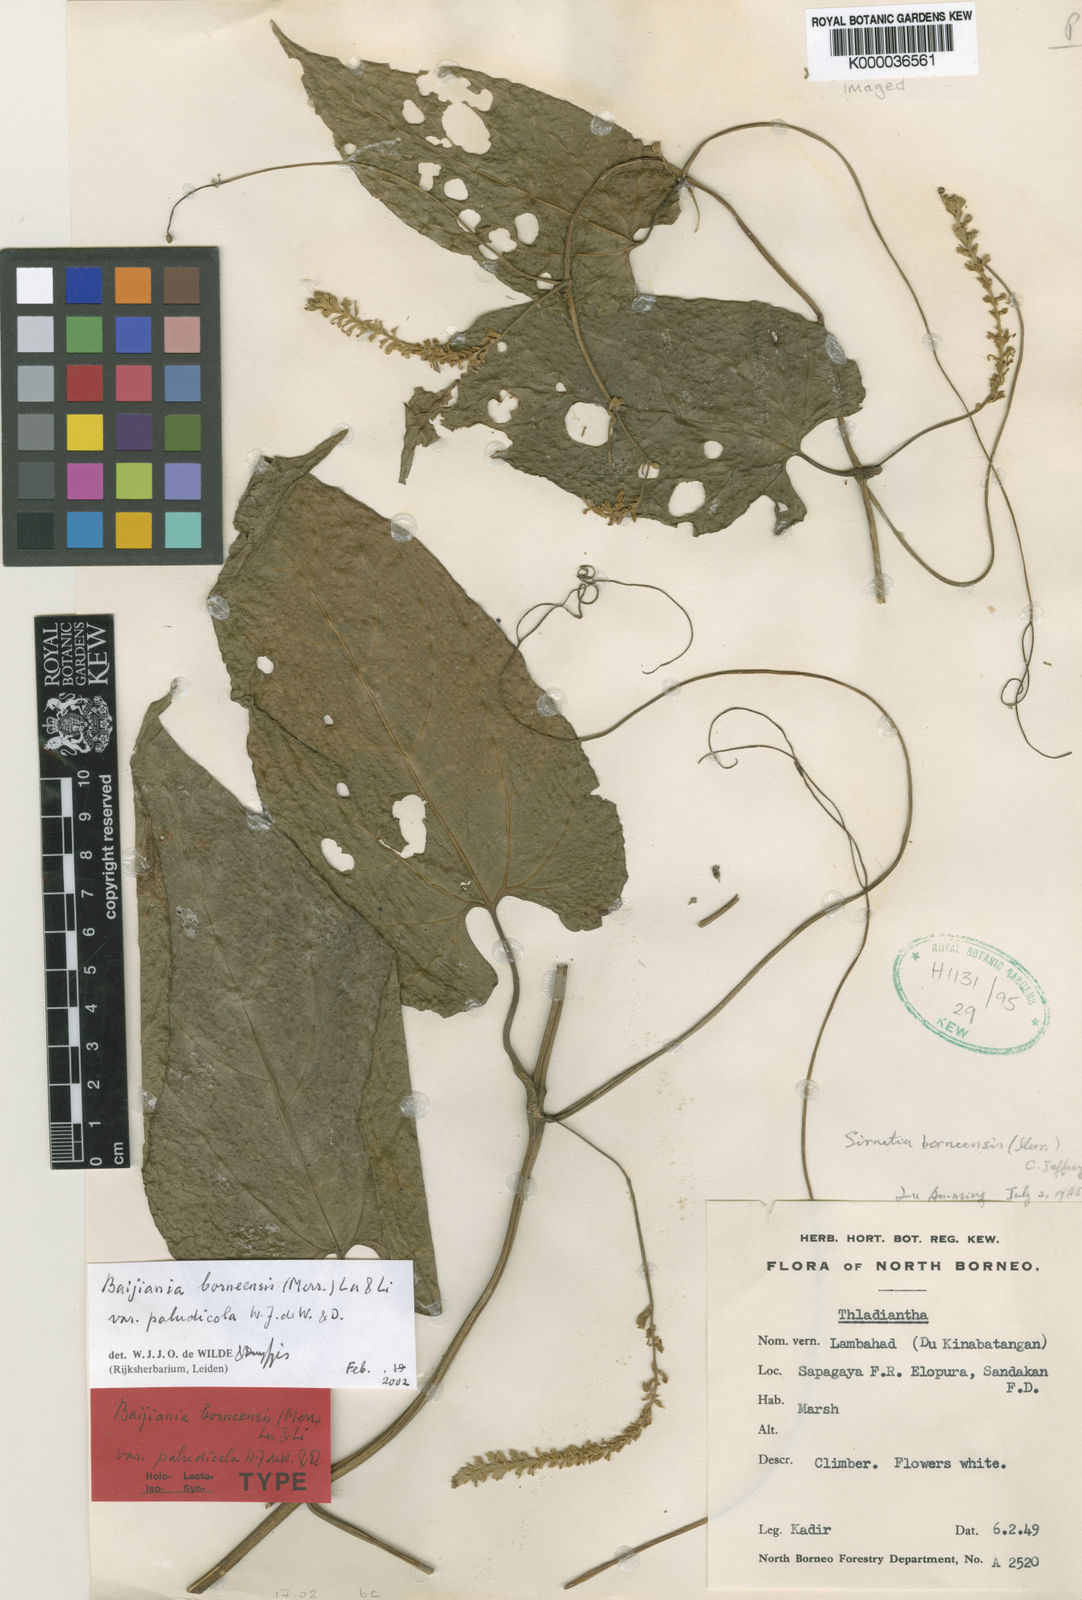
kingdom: Plantae
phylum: Tracheophyta
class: Magnoliopsida
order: Cucurbitales
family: Cucurbitaceae
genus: Baijiania
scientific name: Baijiania borneensis
